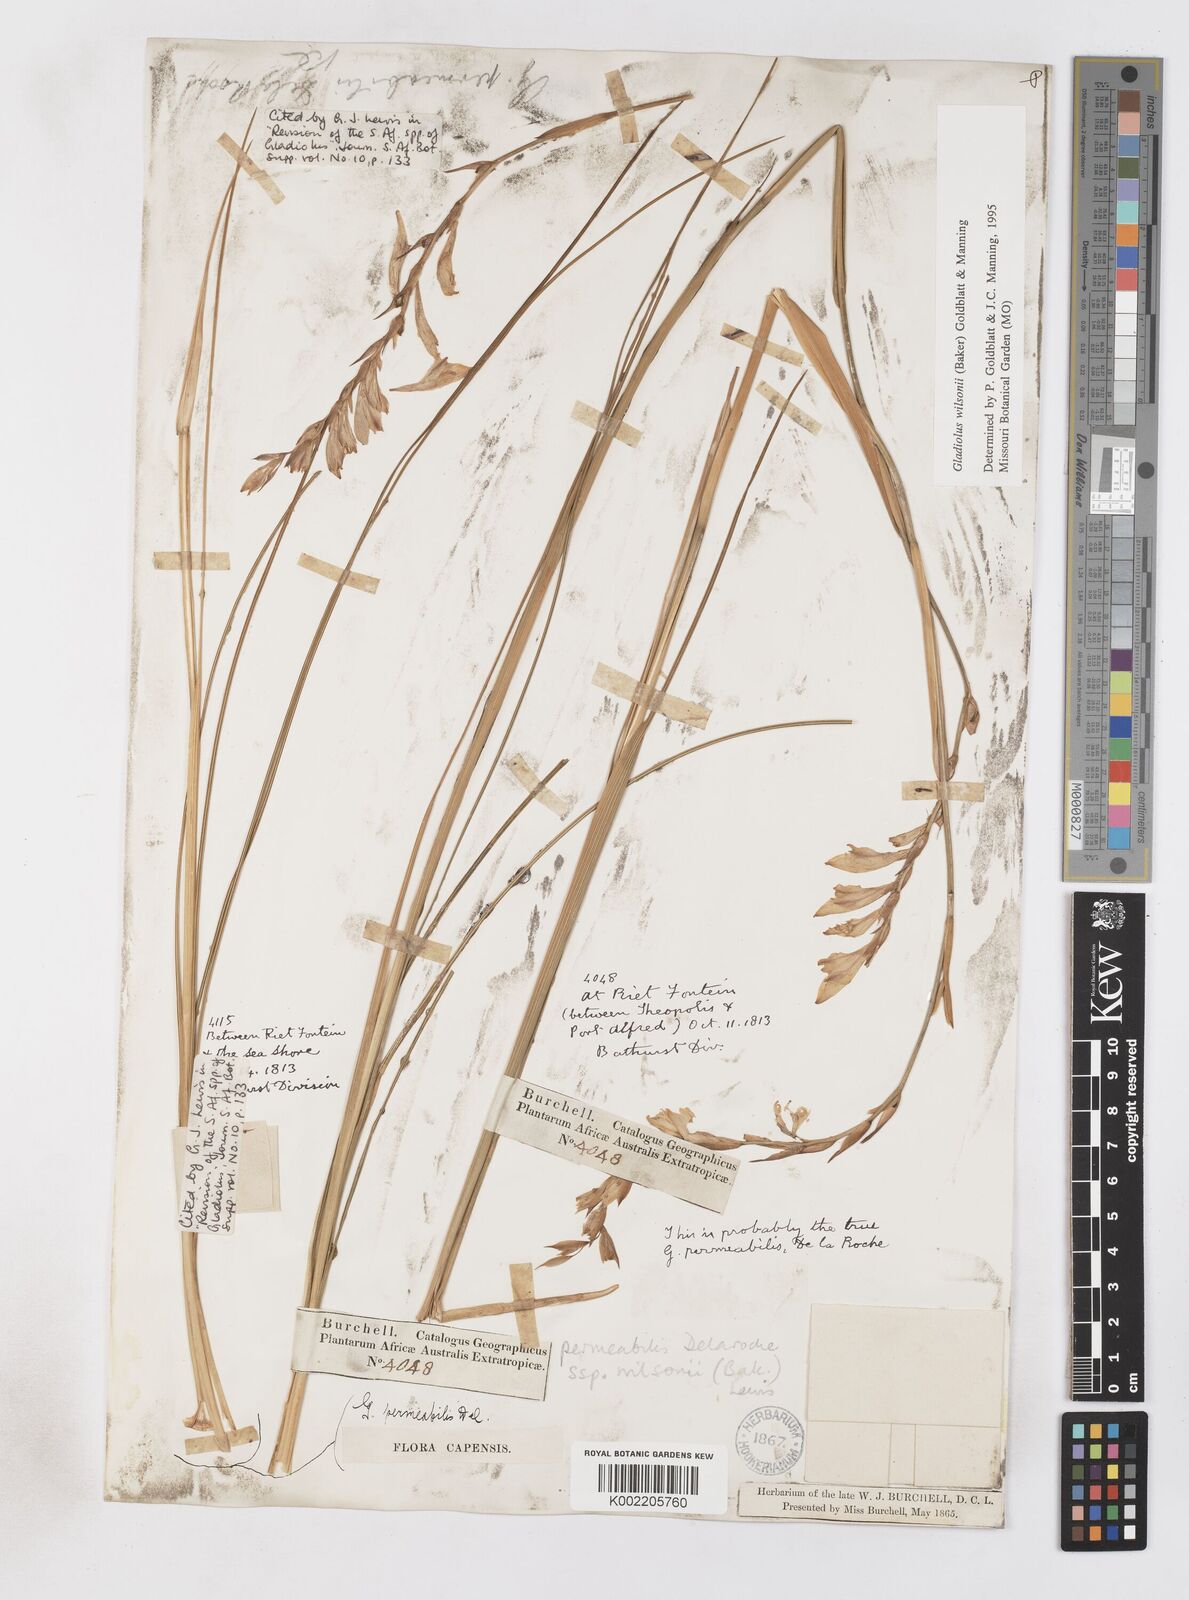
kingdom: Plantae
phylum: Tracheophyta
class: Liliopsida
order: Asparagales
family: Iridaceae
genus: Gladiolus
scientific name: Gladiolus wilsonii
